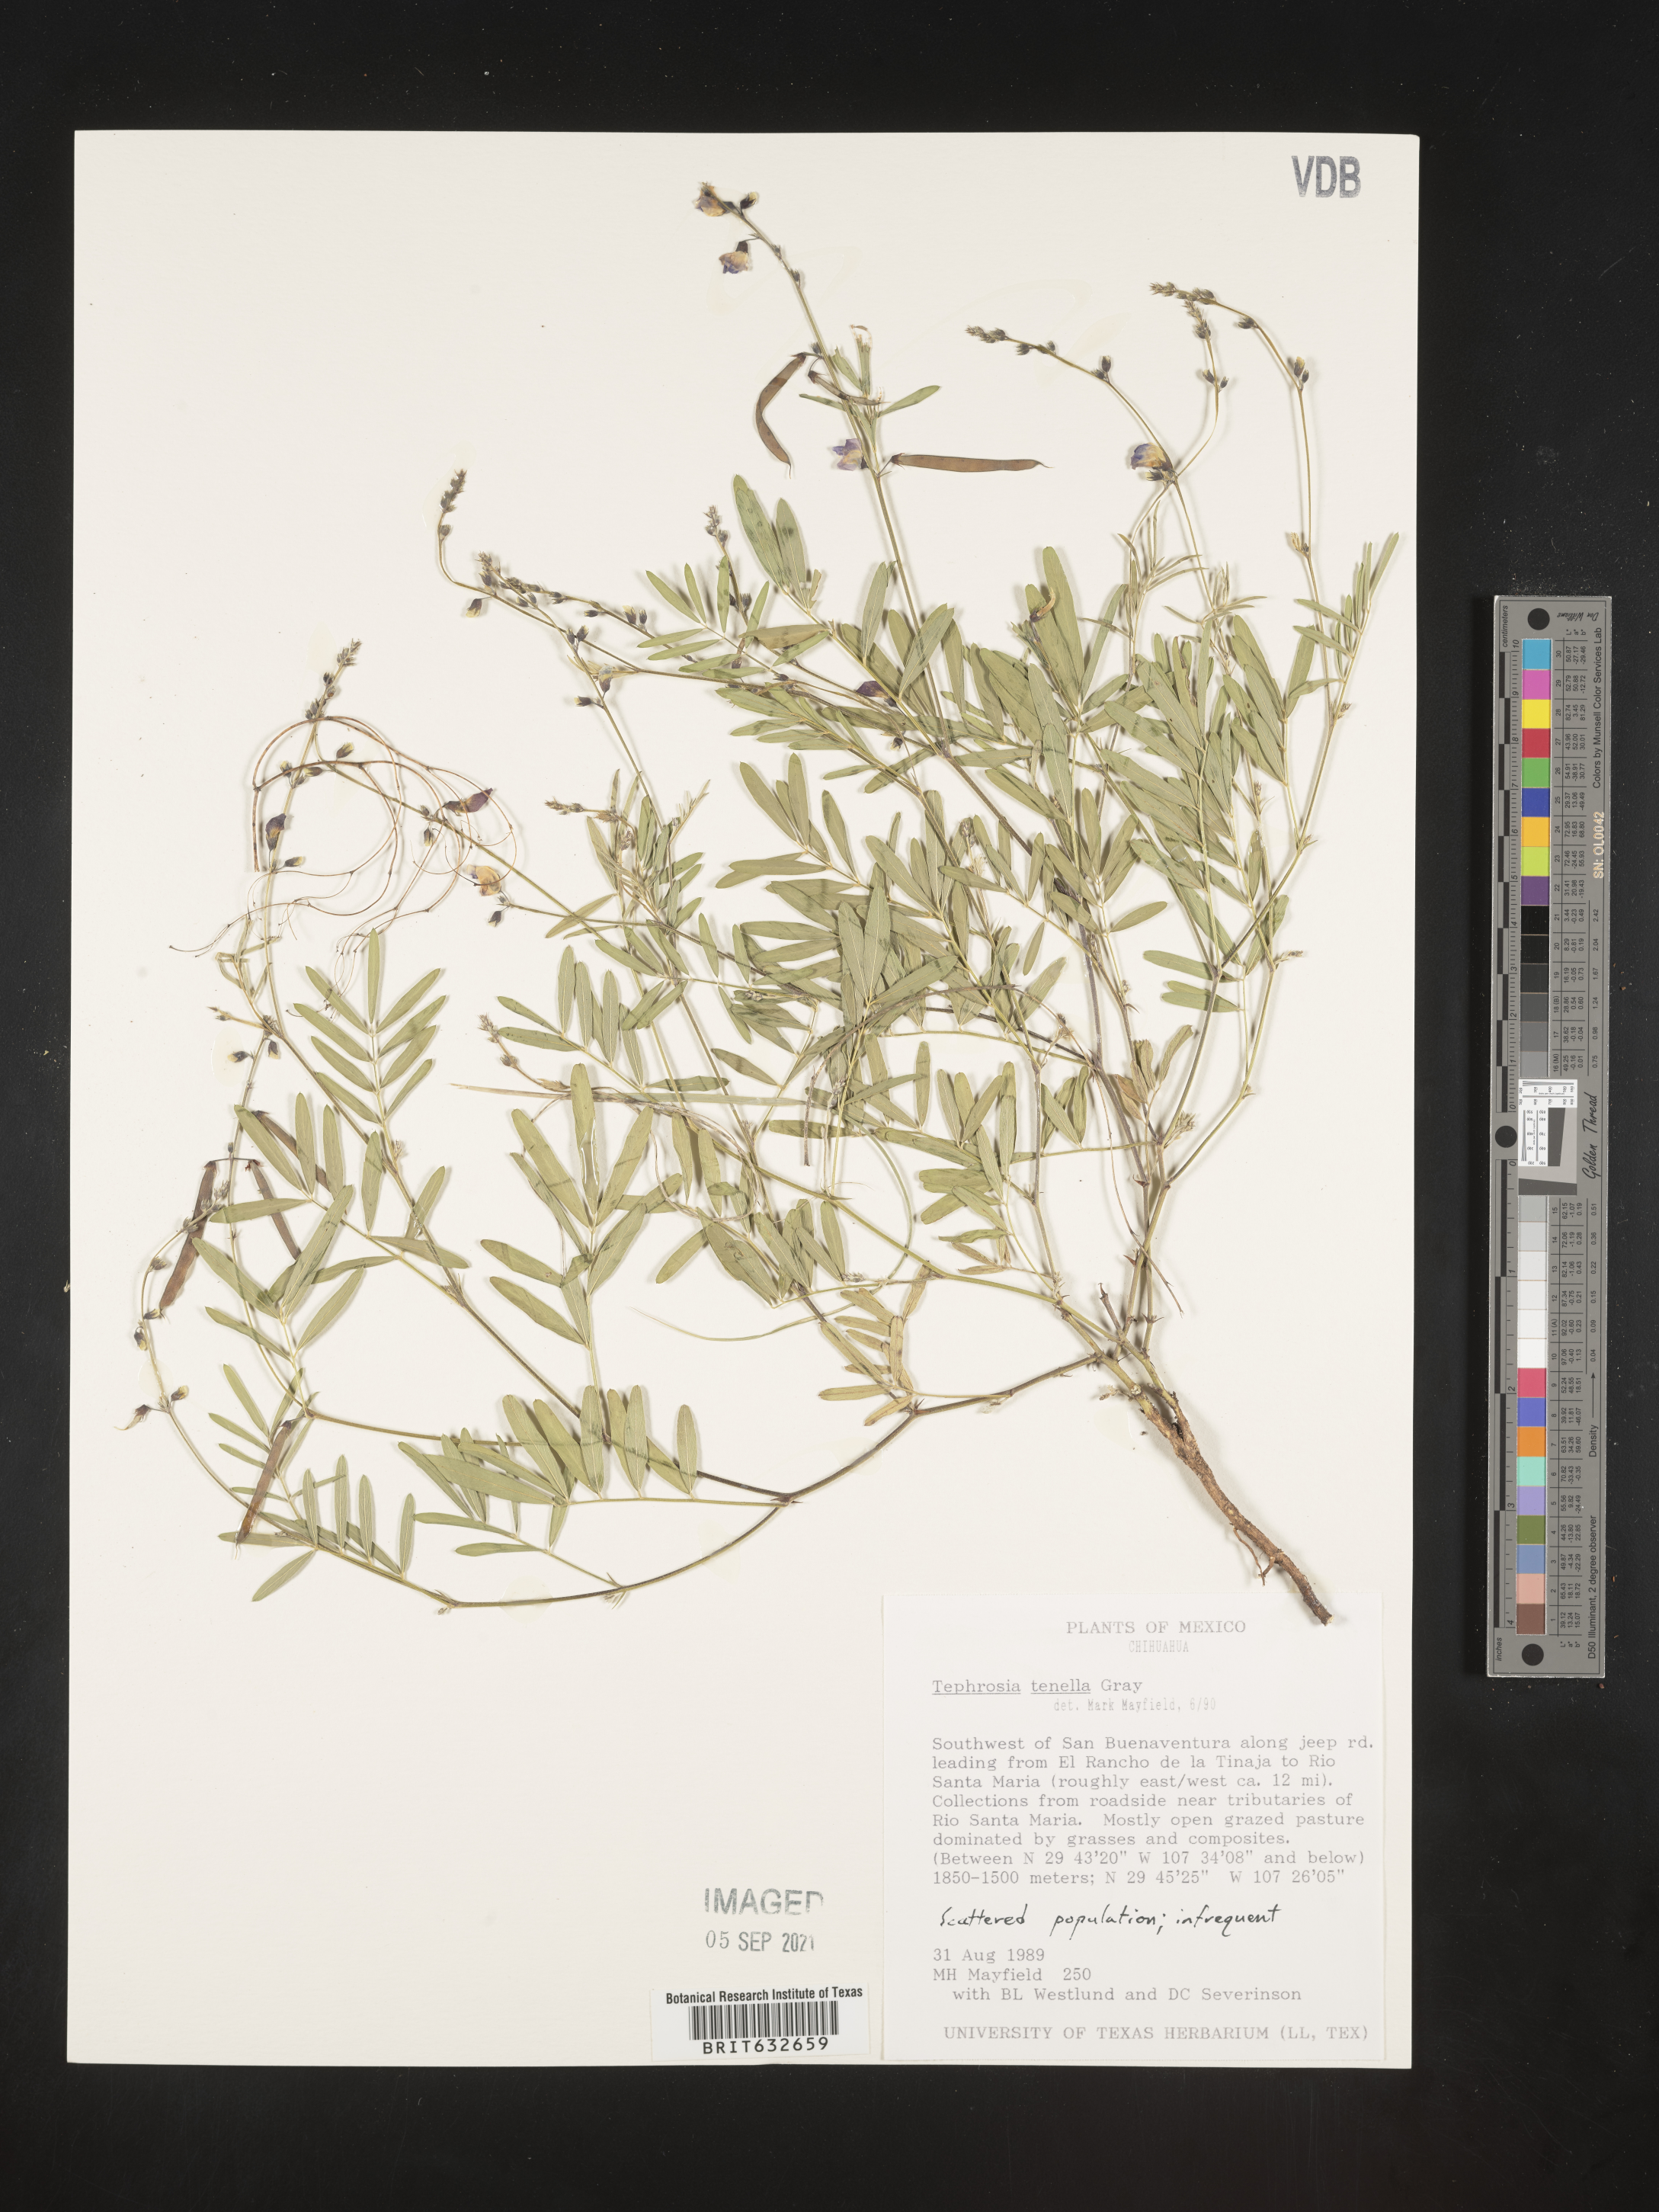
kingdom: Plantae
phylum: Tracheophyta
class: Magnoliopsida
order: Fabales
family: Fabaceae
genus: Tephrosia
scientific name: Tephrosia
